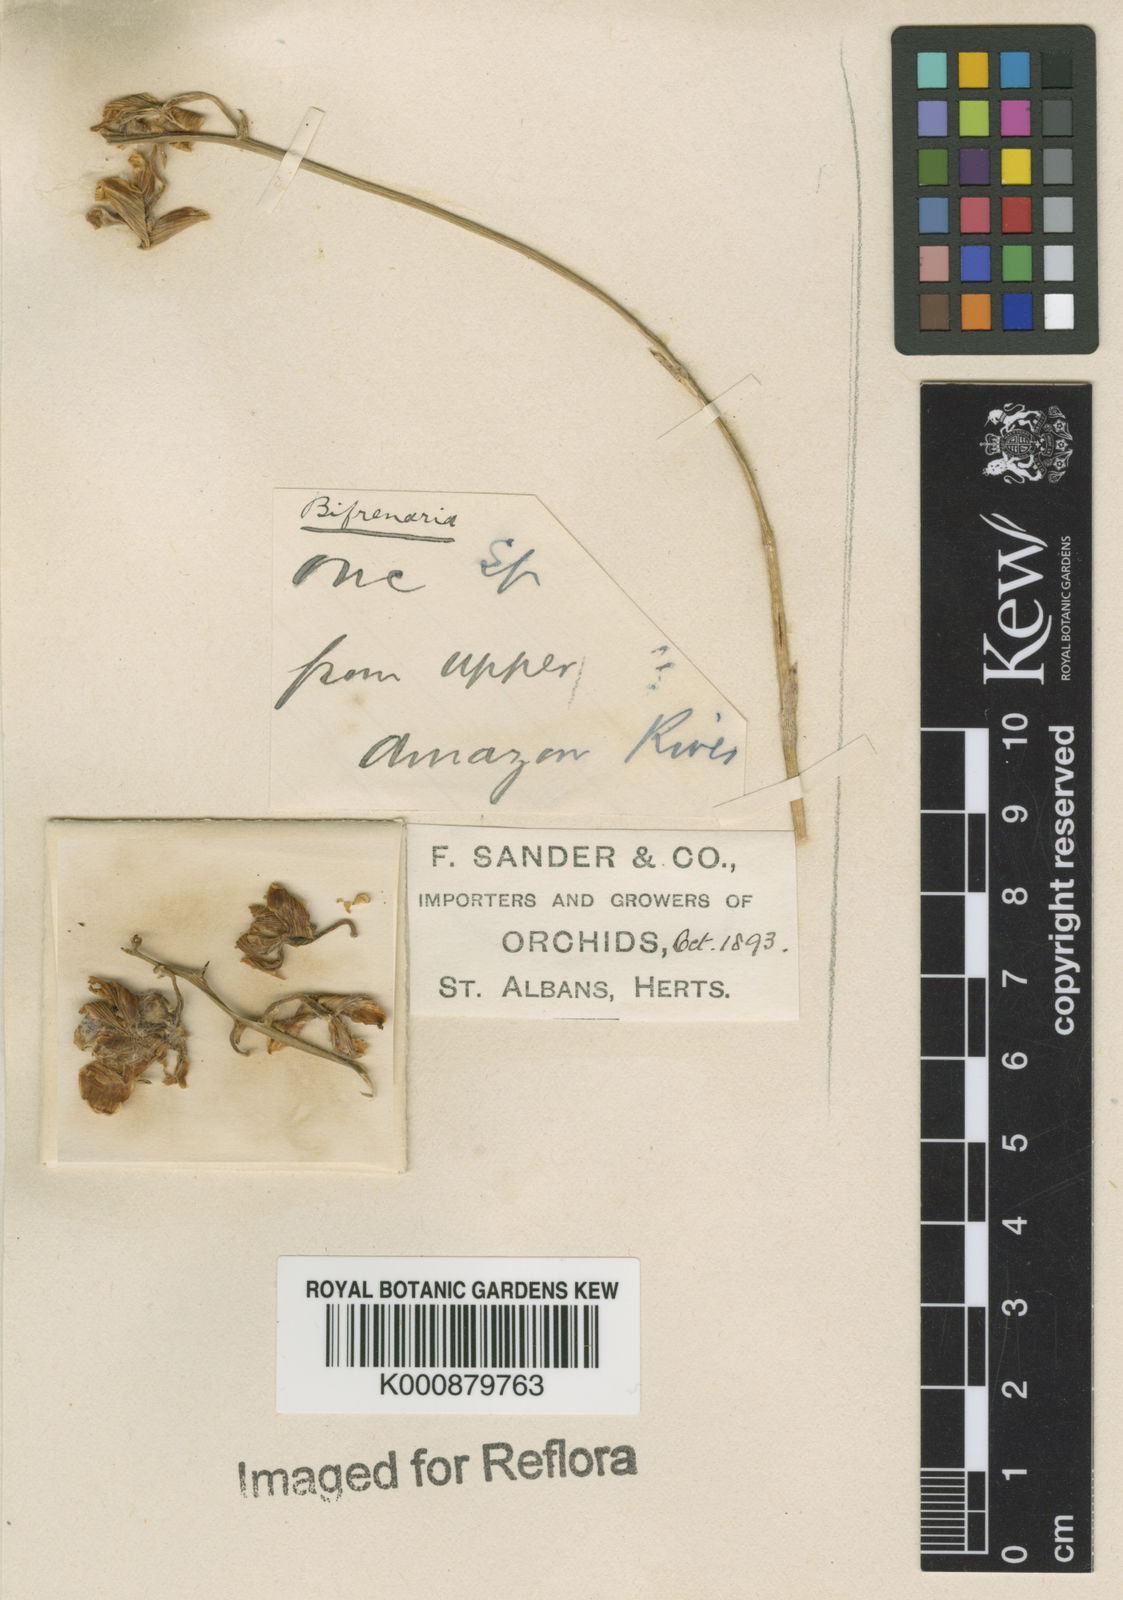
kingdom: Plantae
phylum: Tracheophyta
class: Liliopsida
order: Asparagales
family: Orchidaceae
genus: Rudolfiella
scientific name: Rudolfiella aurantiaca
